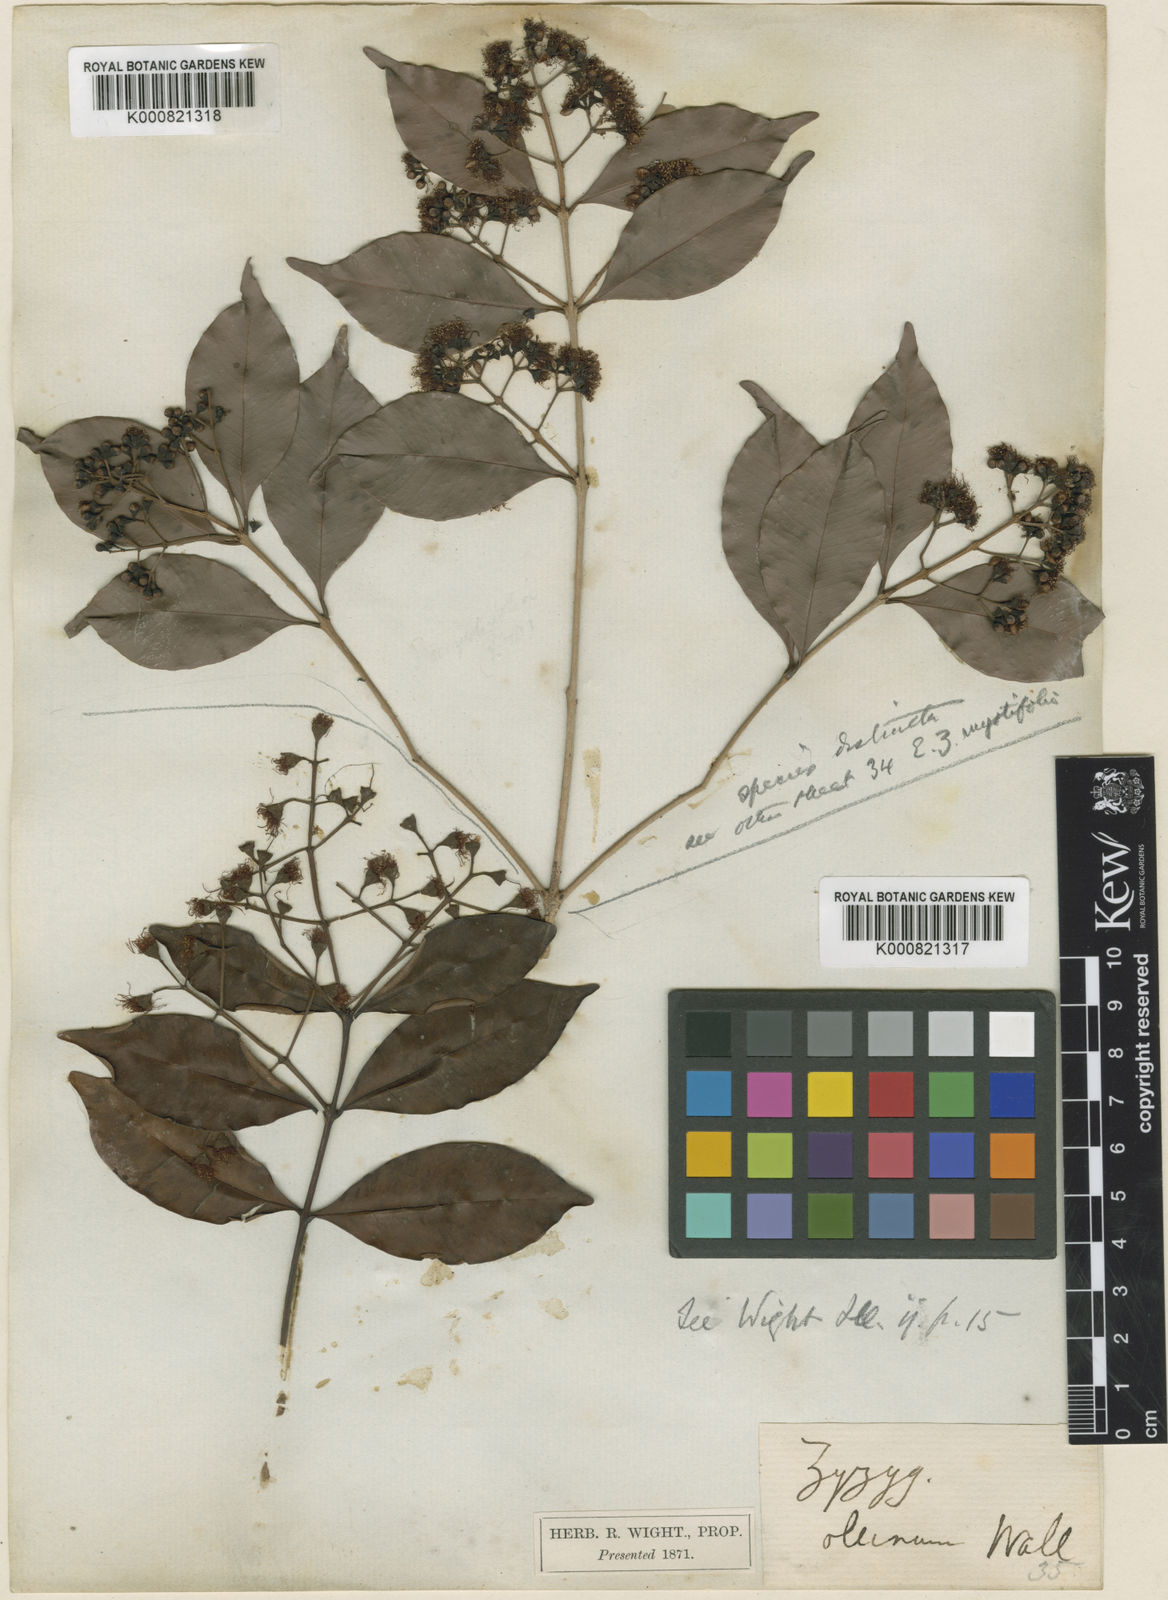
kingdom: Plantae
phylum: Tracheophyta
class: Magnoliopsida
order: Myrtales
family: Myrtaceae
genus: Syzygium
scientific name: Syzygium myrtifolium
